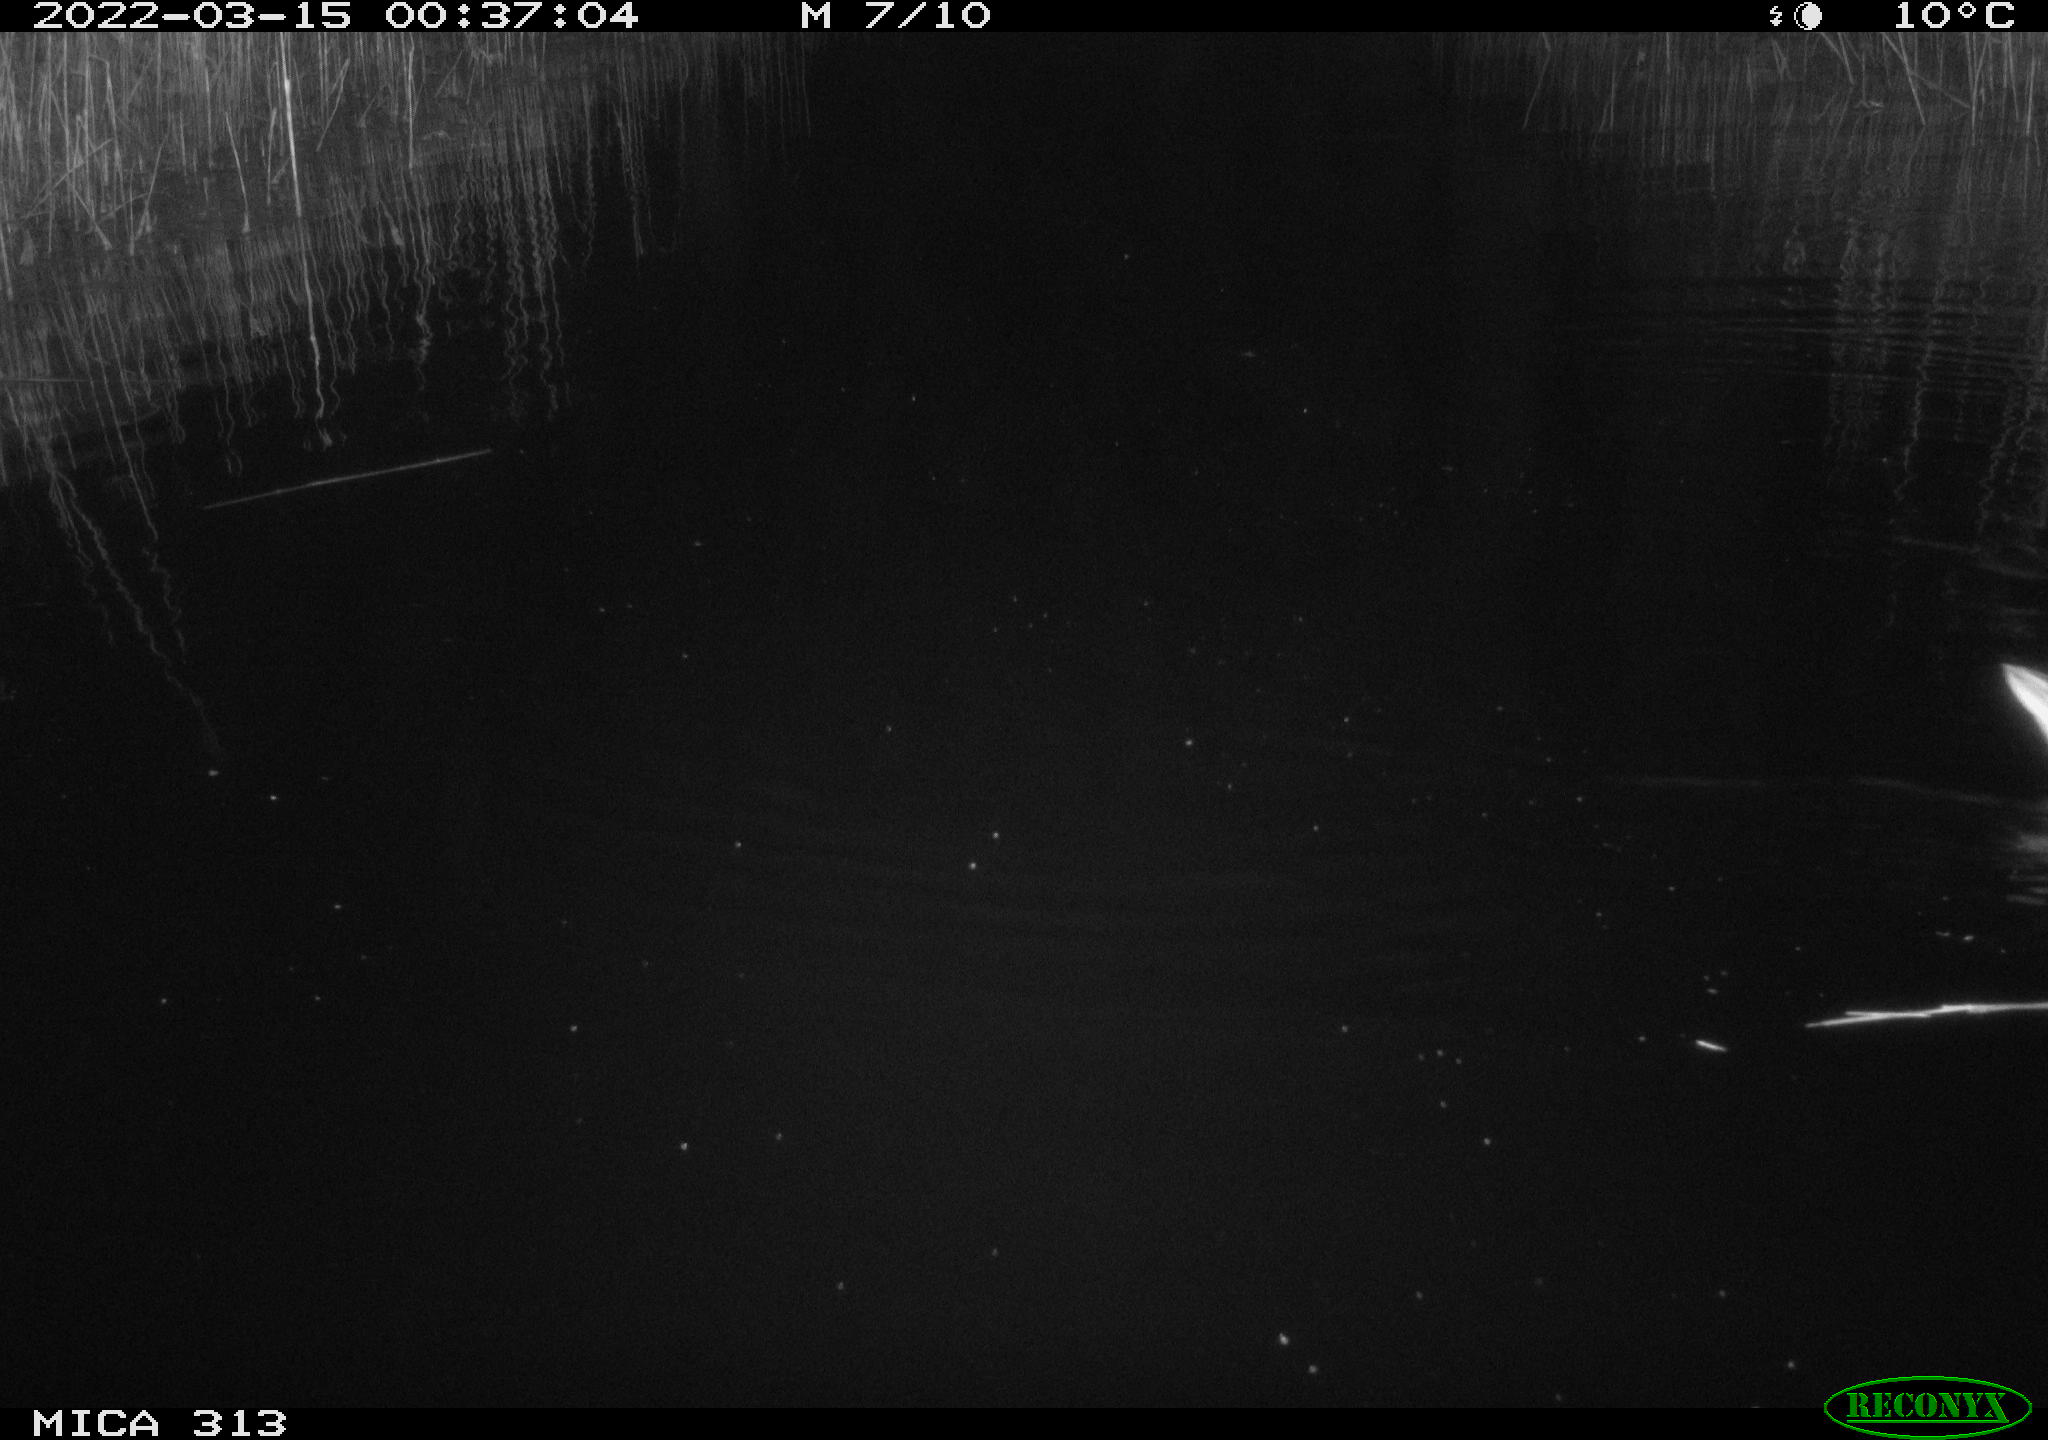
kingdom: Animalia
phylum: Chordata
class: Aves
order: Anseriformes
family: Anatidae
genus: Mareca
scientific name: Mareca strepera
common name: Gadwall
